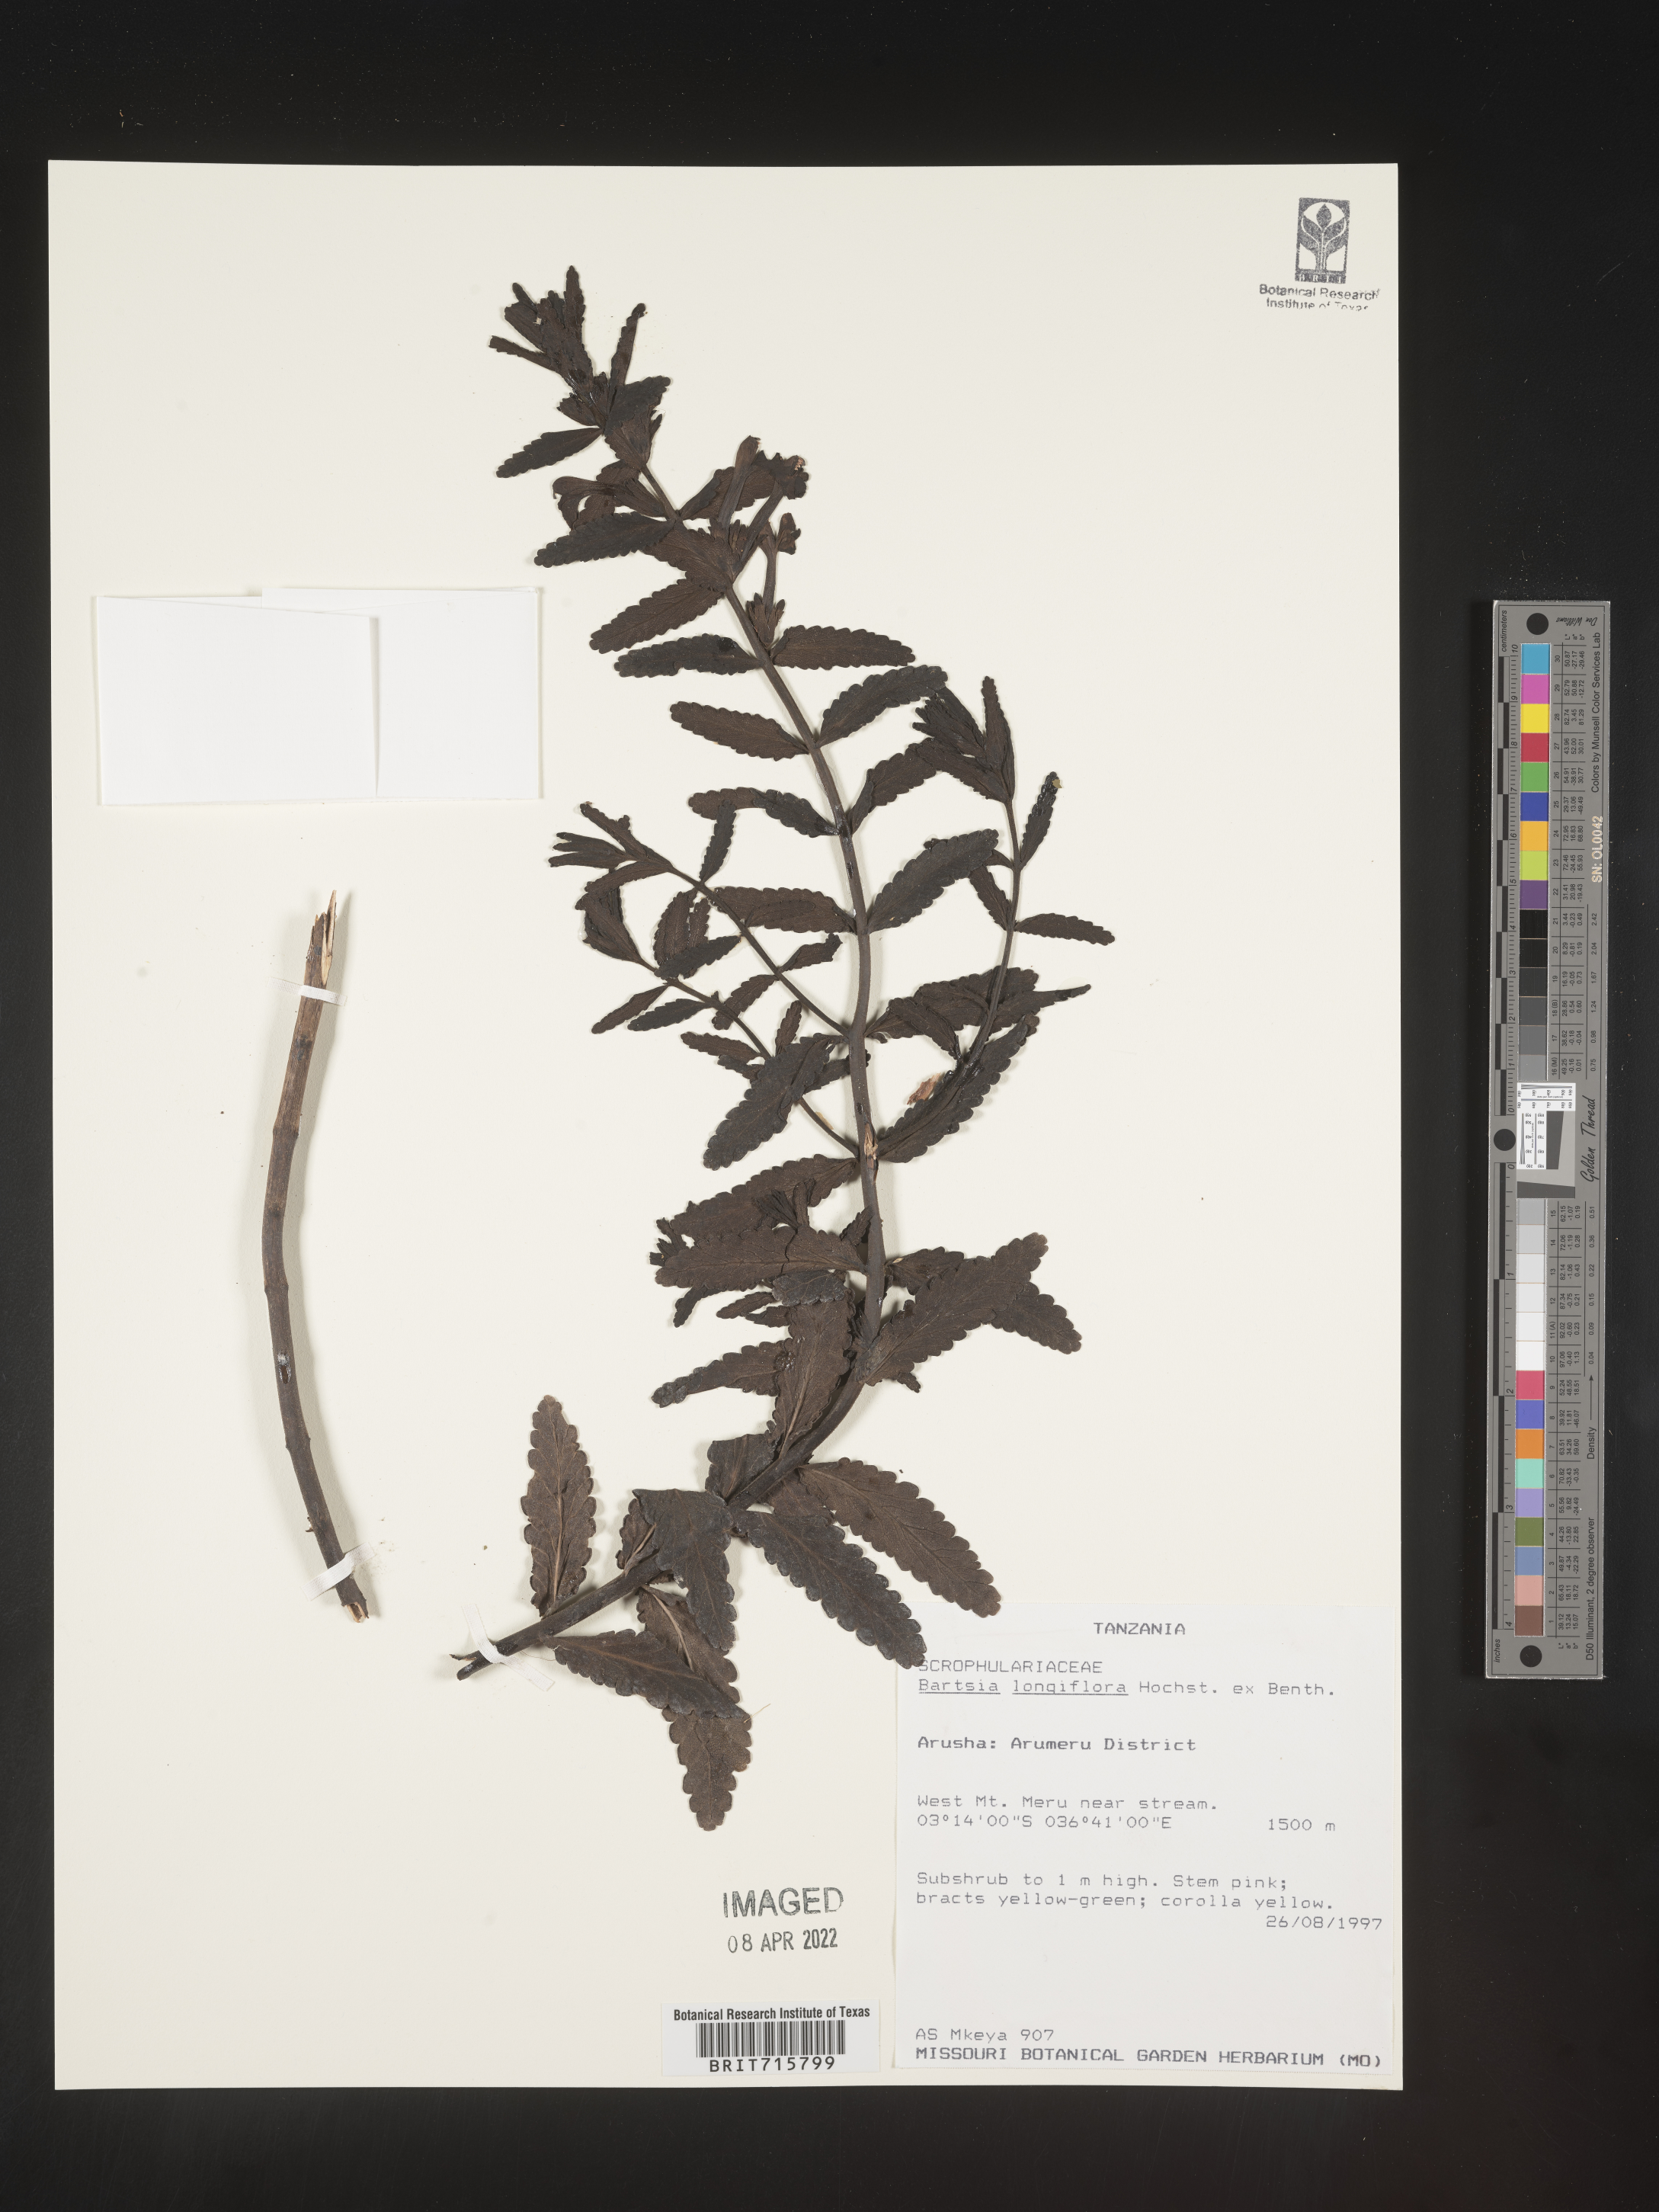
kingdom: Plantae
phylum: Tracheophyta
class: Magnoliopsida
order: Lamiales
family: Orobanchaceae
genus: Bartsia
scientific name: Bartsia
